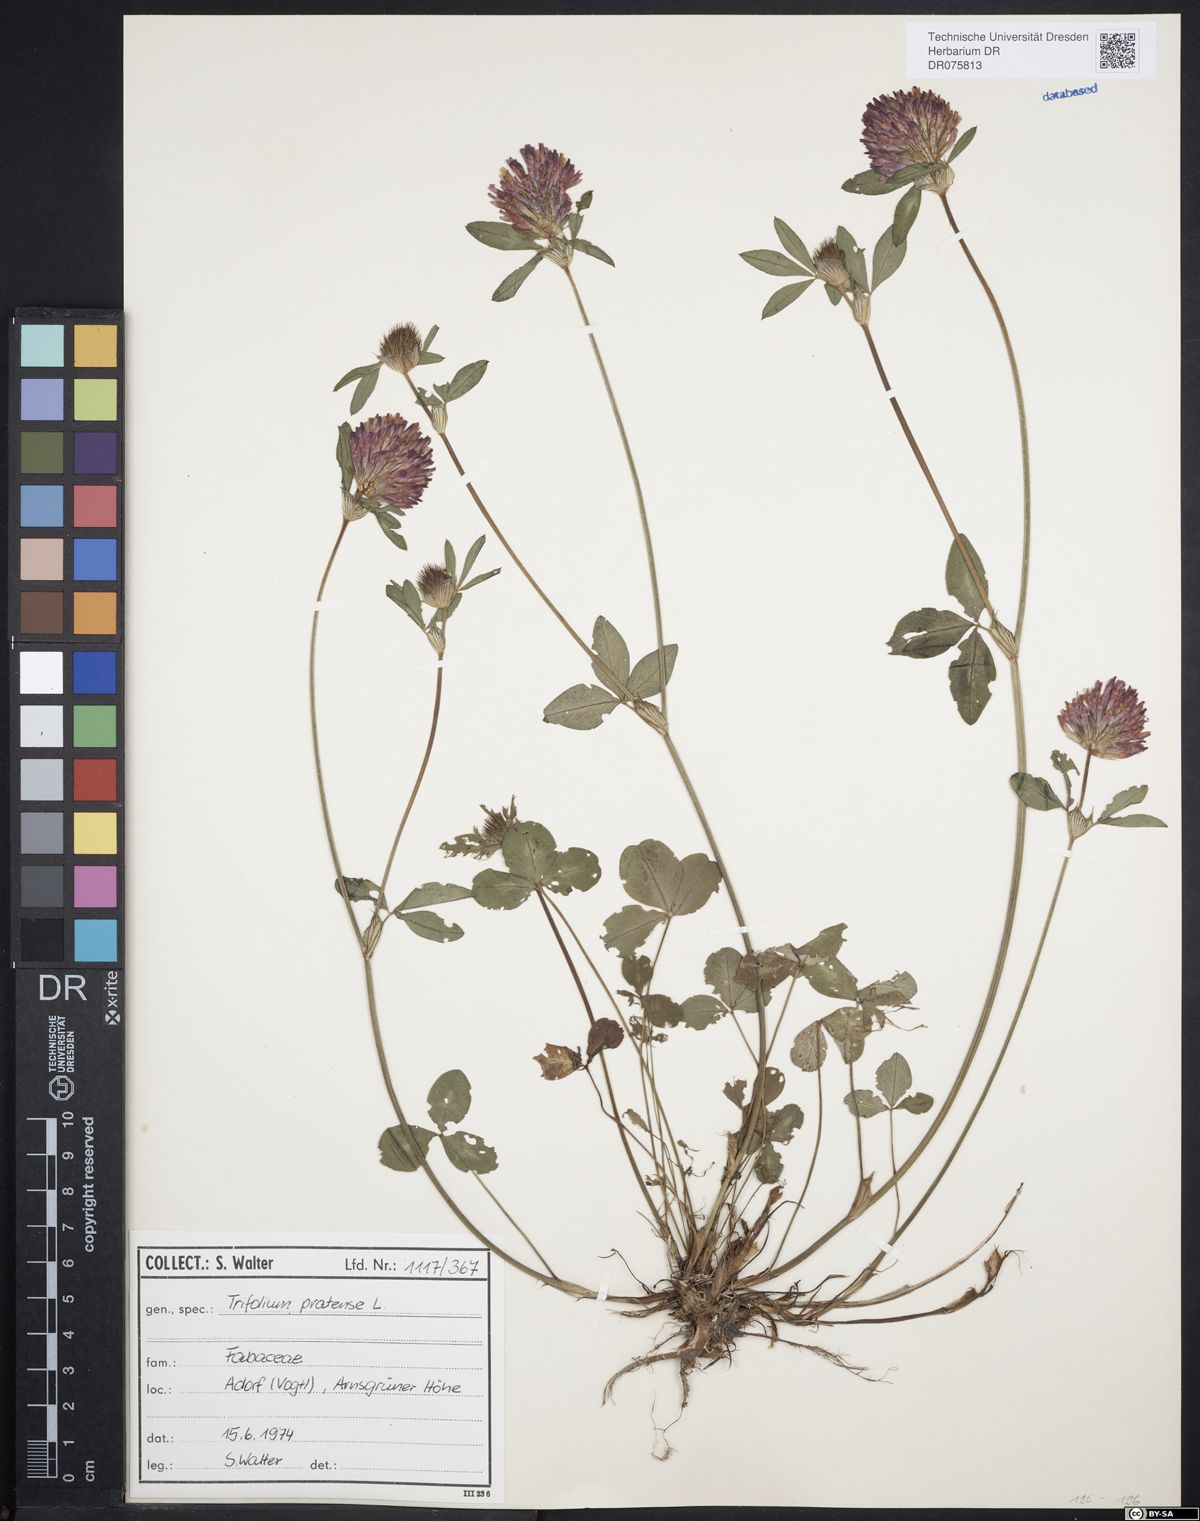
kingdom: Plantae
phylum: Tracheophyta
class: Magnoliopsida
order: Fabales
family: Fabaceae
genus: Trifolium
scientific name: Trifolium pratense
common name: Red clover
